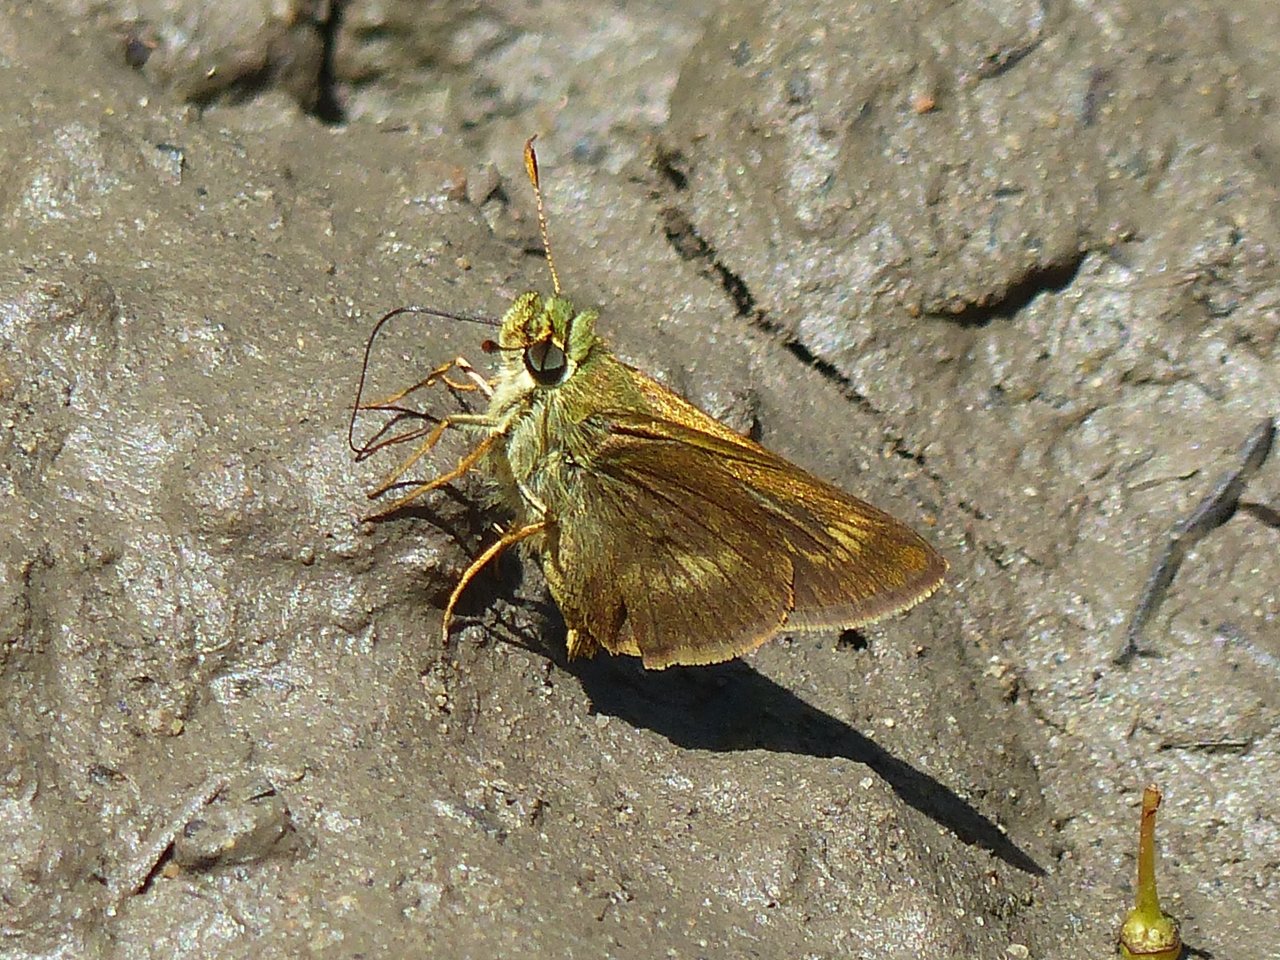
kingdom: Animalia
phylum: Arthropoda
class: Insecta
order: Lepidoptera
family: Hesperiidae
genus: Polites
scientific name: Polites egeremet
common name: Northern Broken-Dash
